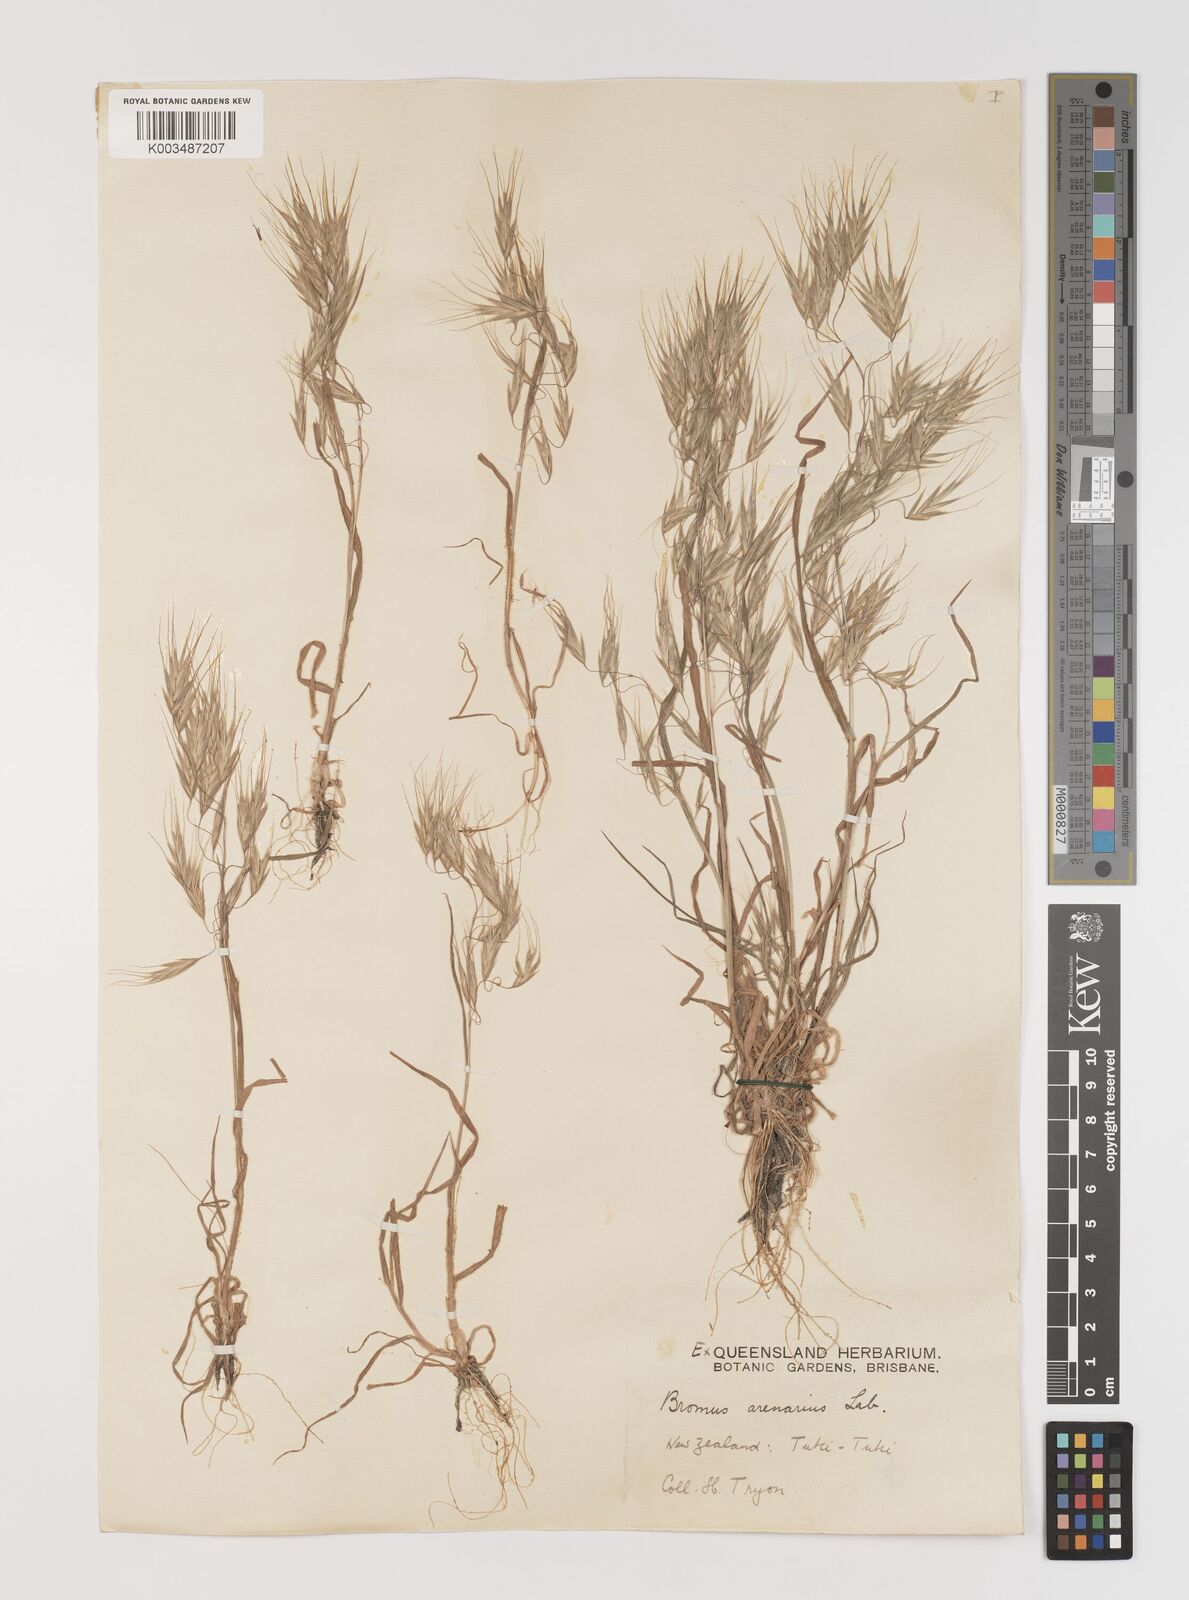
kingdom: Plantae
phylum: Tracheophyta
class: Liliopsida
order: Poales
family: Poaceae
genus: Bromus
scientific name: Bromus arenarius
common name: Australian brome
